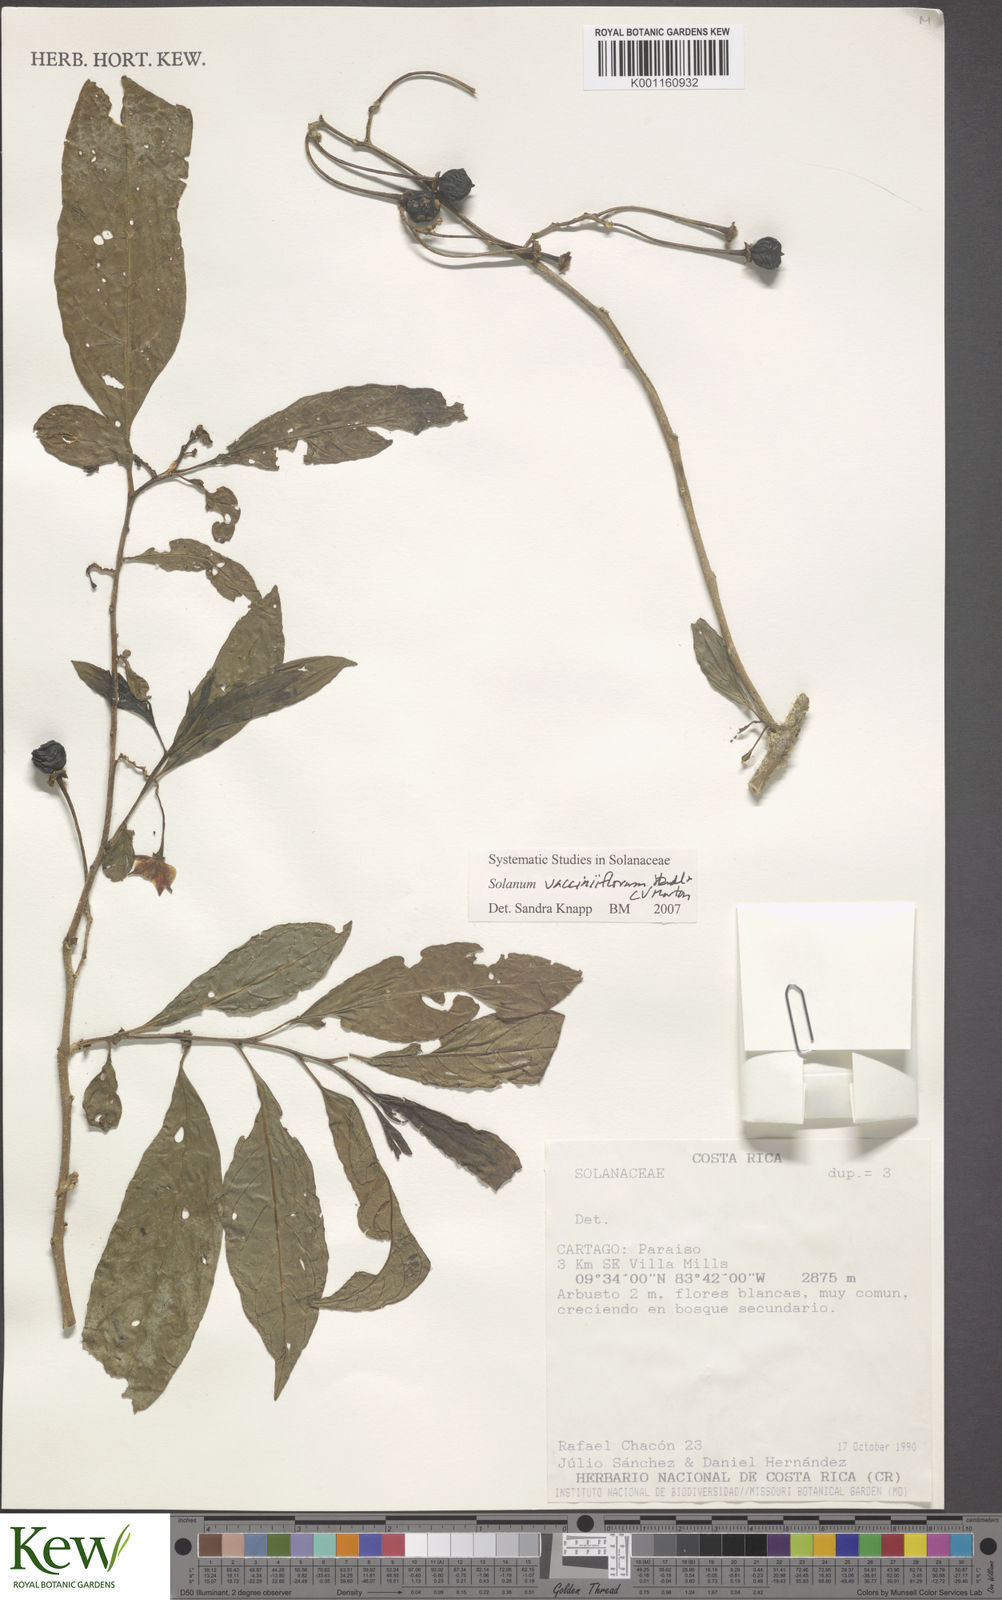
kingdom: Plantae
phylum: Tracheophyta
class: Magnoliopsida
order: Solanales
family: Solanaceae
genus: Solanum
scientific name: Solanum vacciniiflorum
